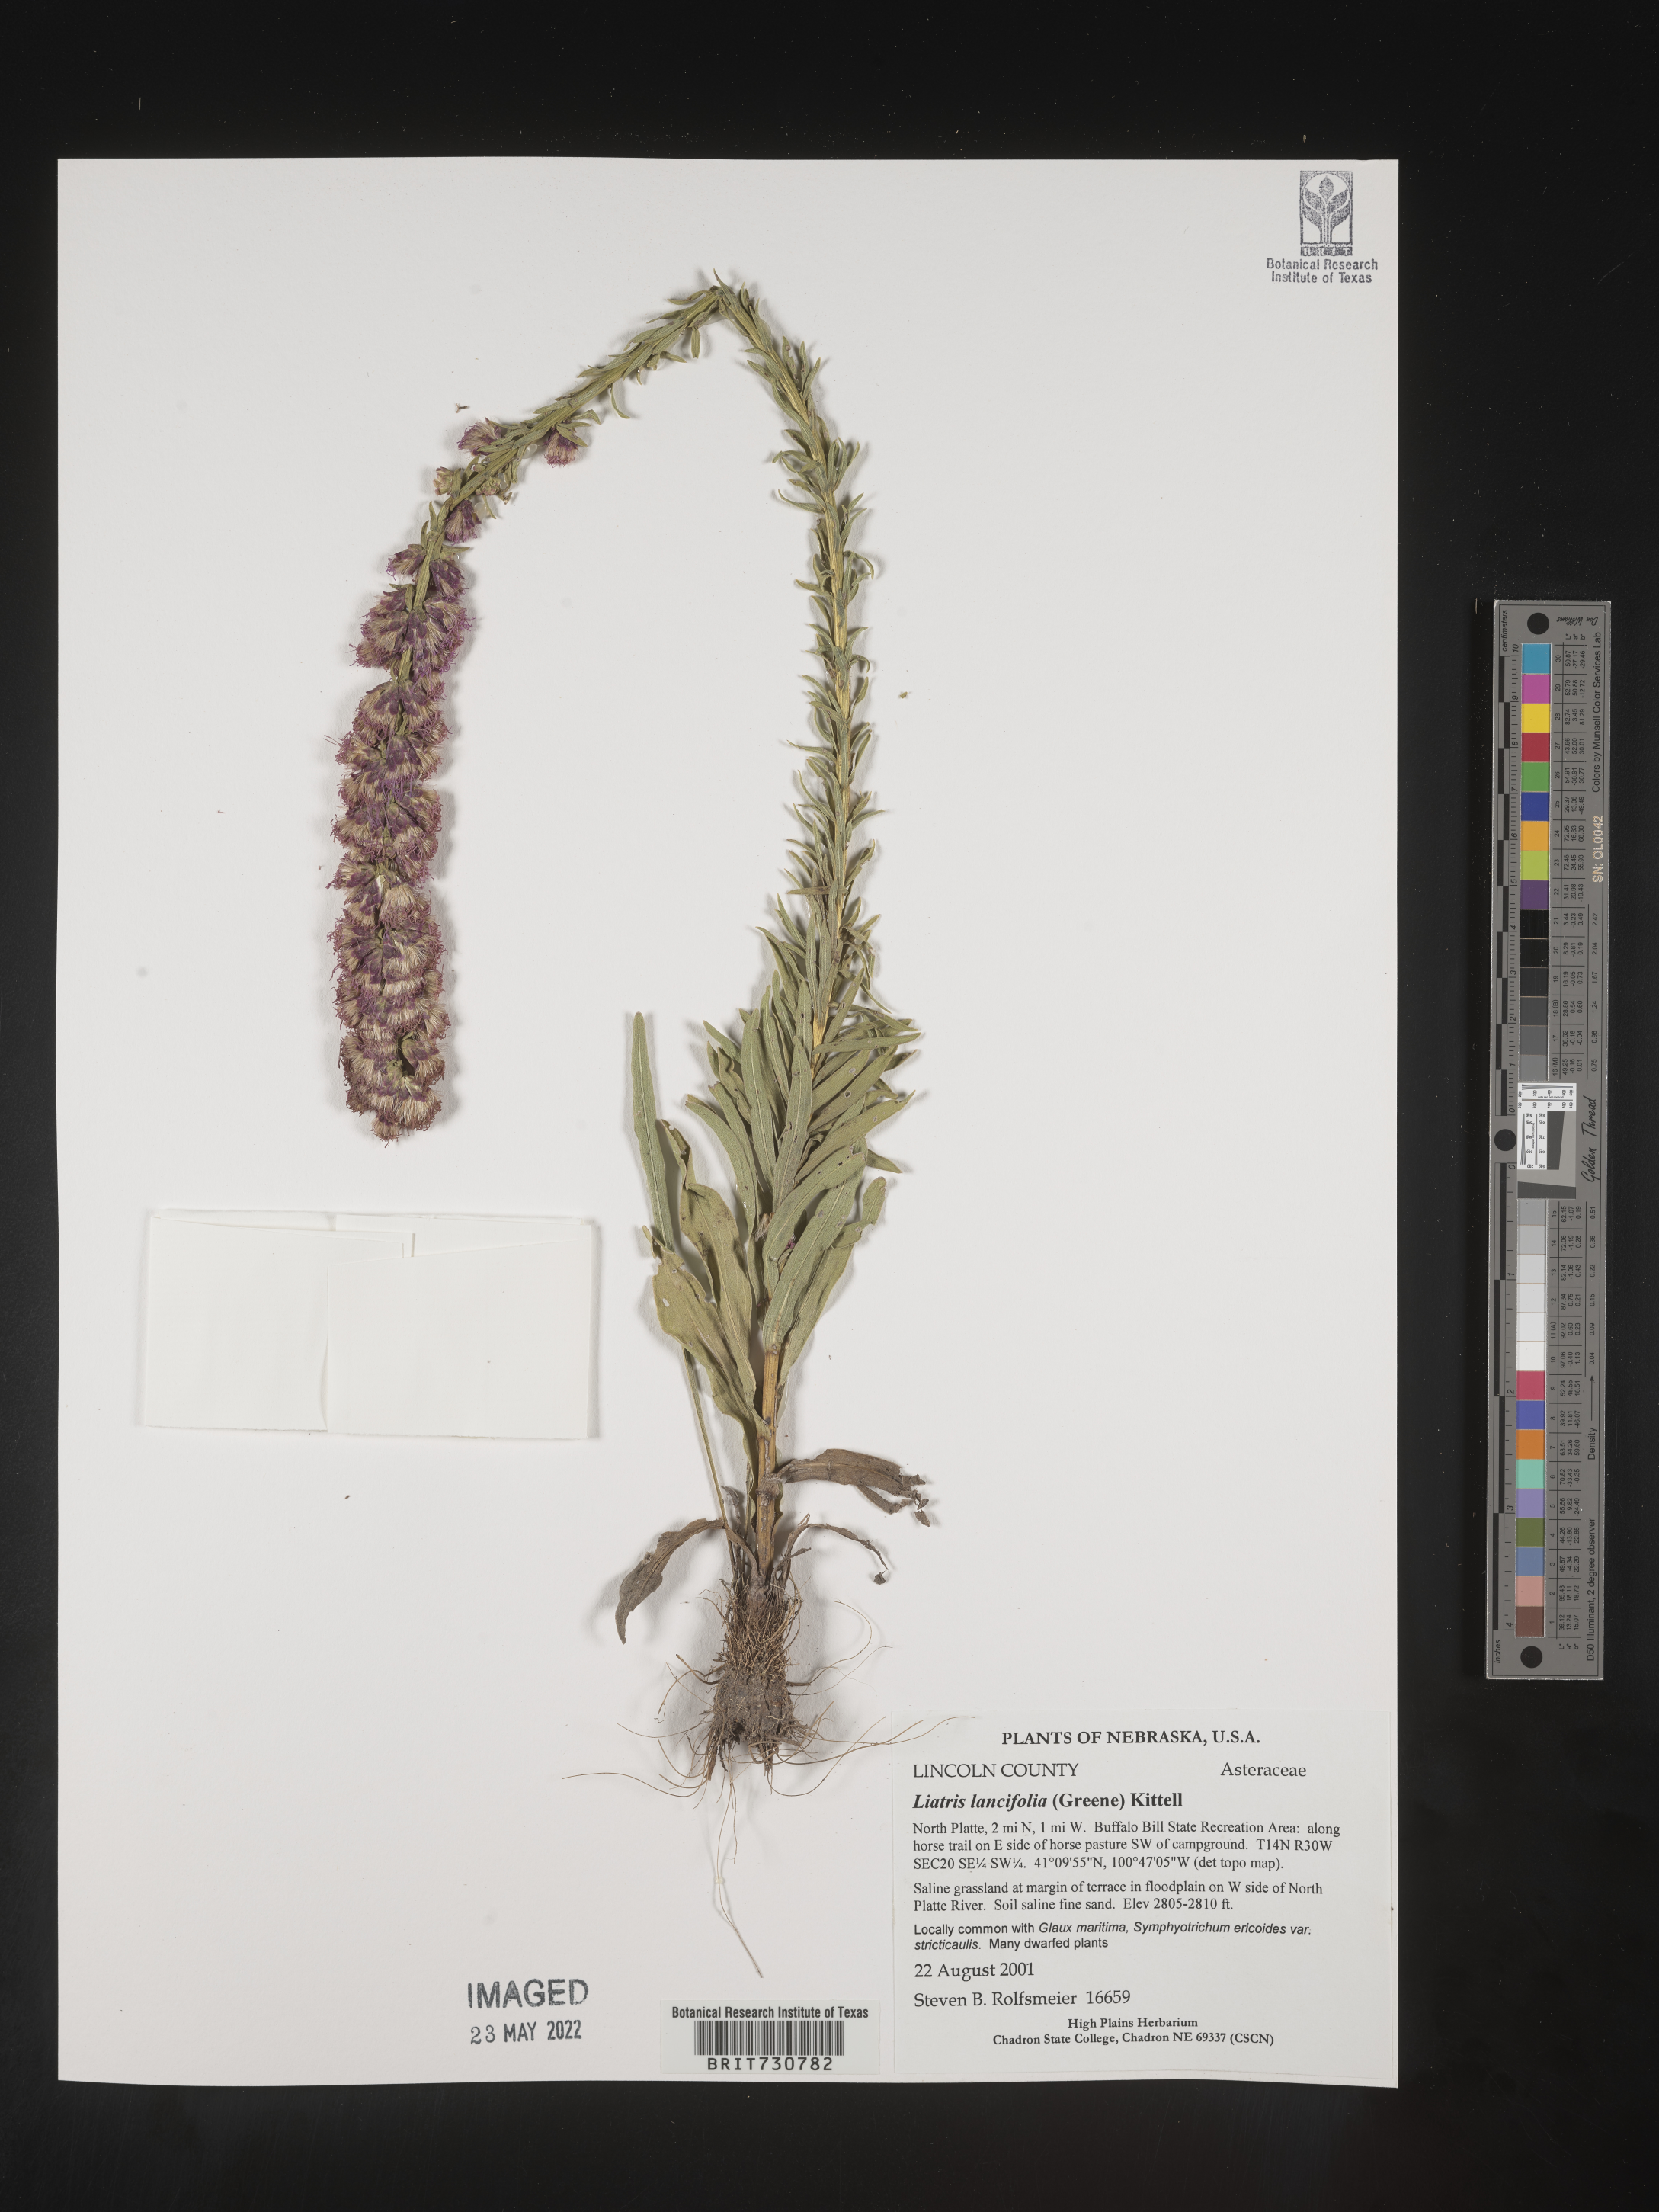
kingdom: Plantae
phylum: Tracheophyta
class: Magnoliopsida
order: Asterales
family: Asteraceae
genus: Liatris
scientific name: Liatris lancifolia
